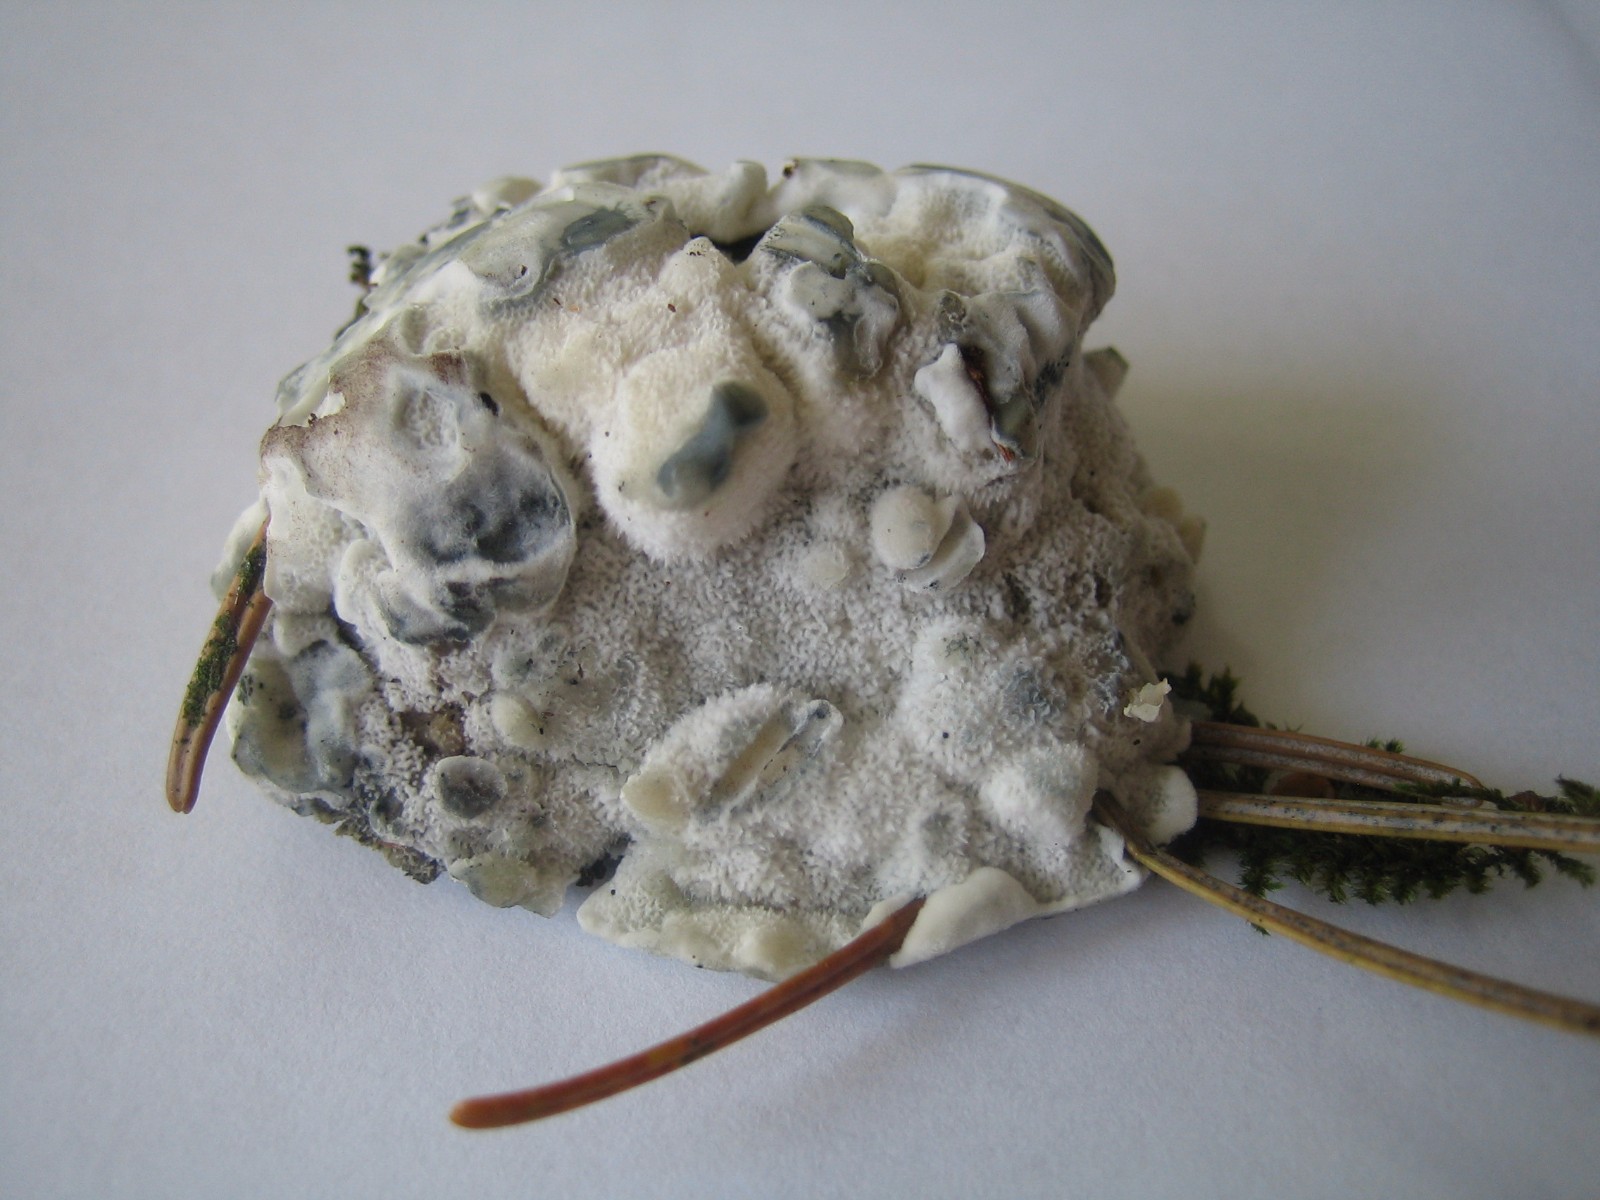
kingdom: Fungi
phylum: Basidiomycota
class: Agaricomycetes
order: Polyporales
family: Polyporaceae
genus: Cyanosporus
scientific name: Cyanosporus caesius
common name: blålig kødporesvamp
